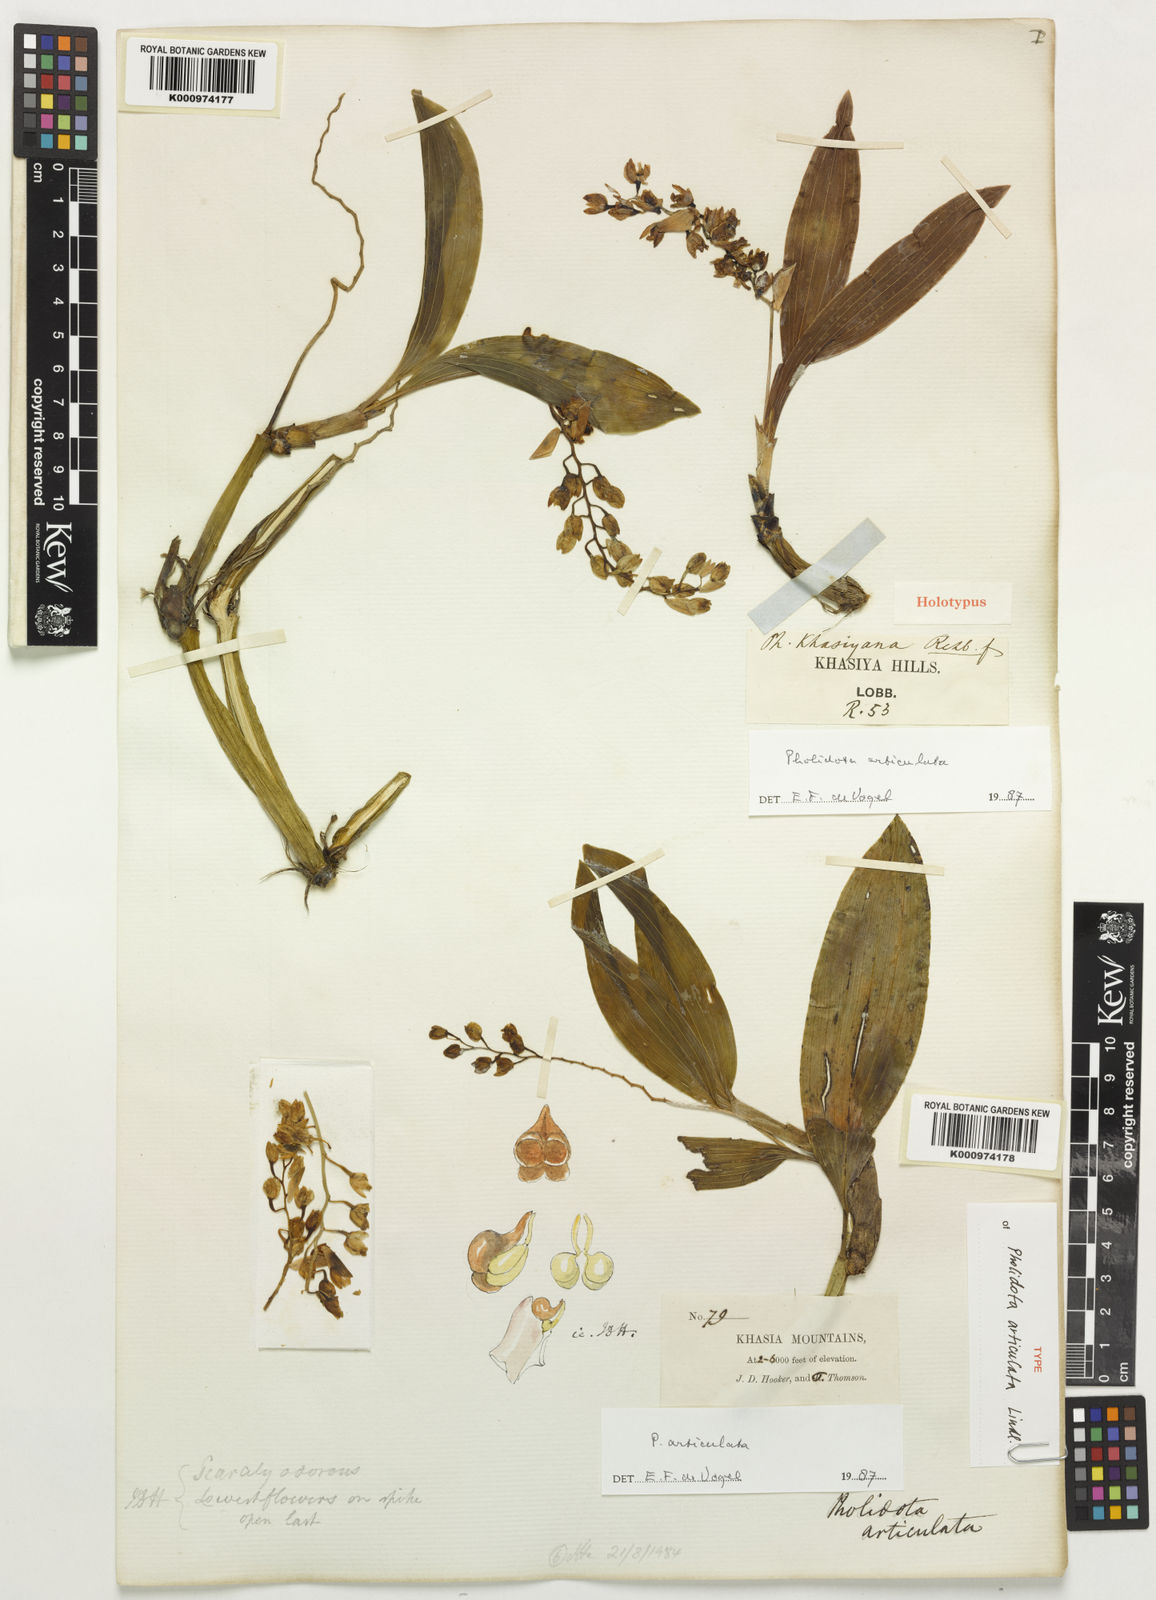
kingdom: Plantae
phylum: Tracheophyta
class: Liliopsida
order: Asparagales
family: Orchidaceae
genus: Coelogyne
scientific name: Coelogyne articulata
